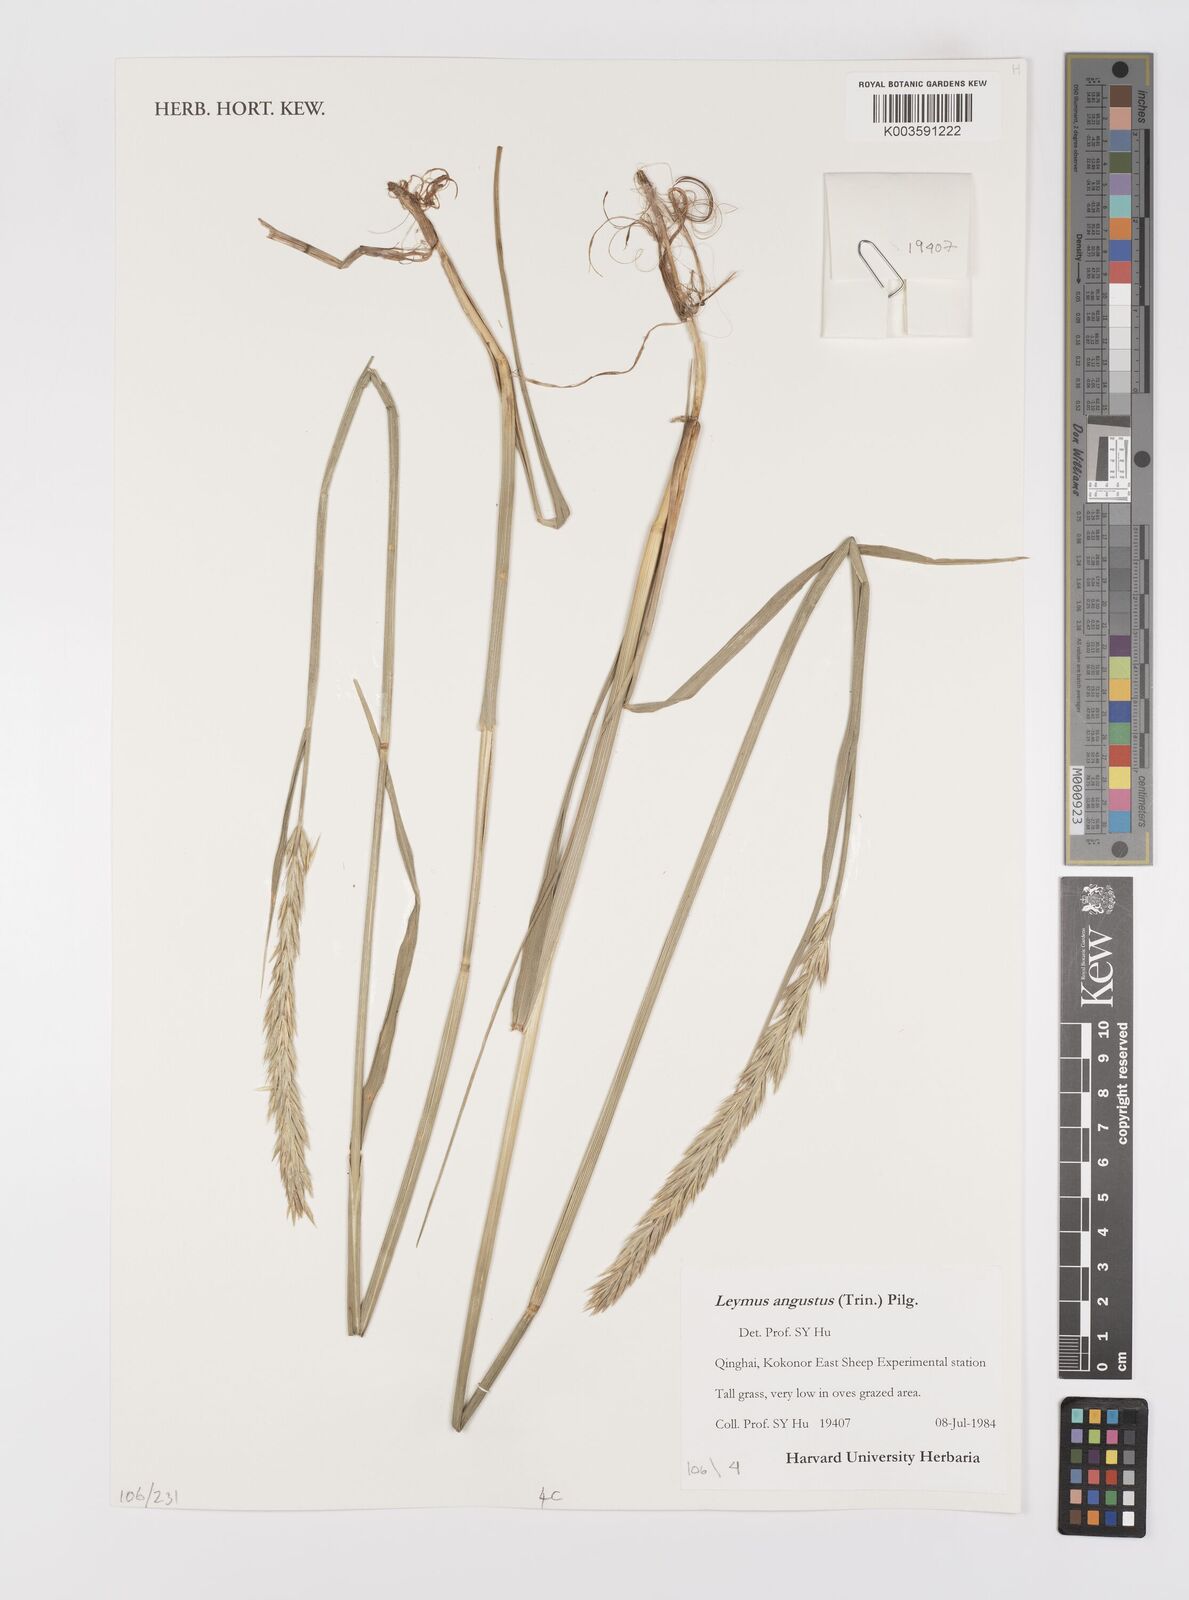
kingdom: Plantae
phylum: Tracheophyta
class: Liliopsida
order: Poales
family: Poaceae
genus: Leymus
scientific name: Leymus angustus
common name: Altai wildrye
